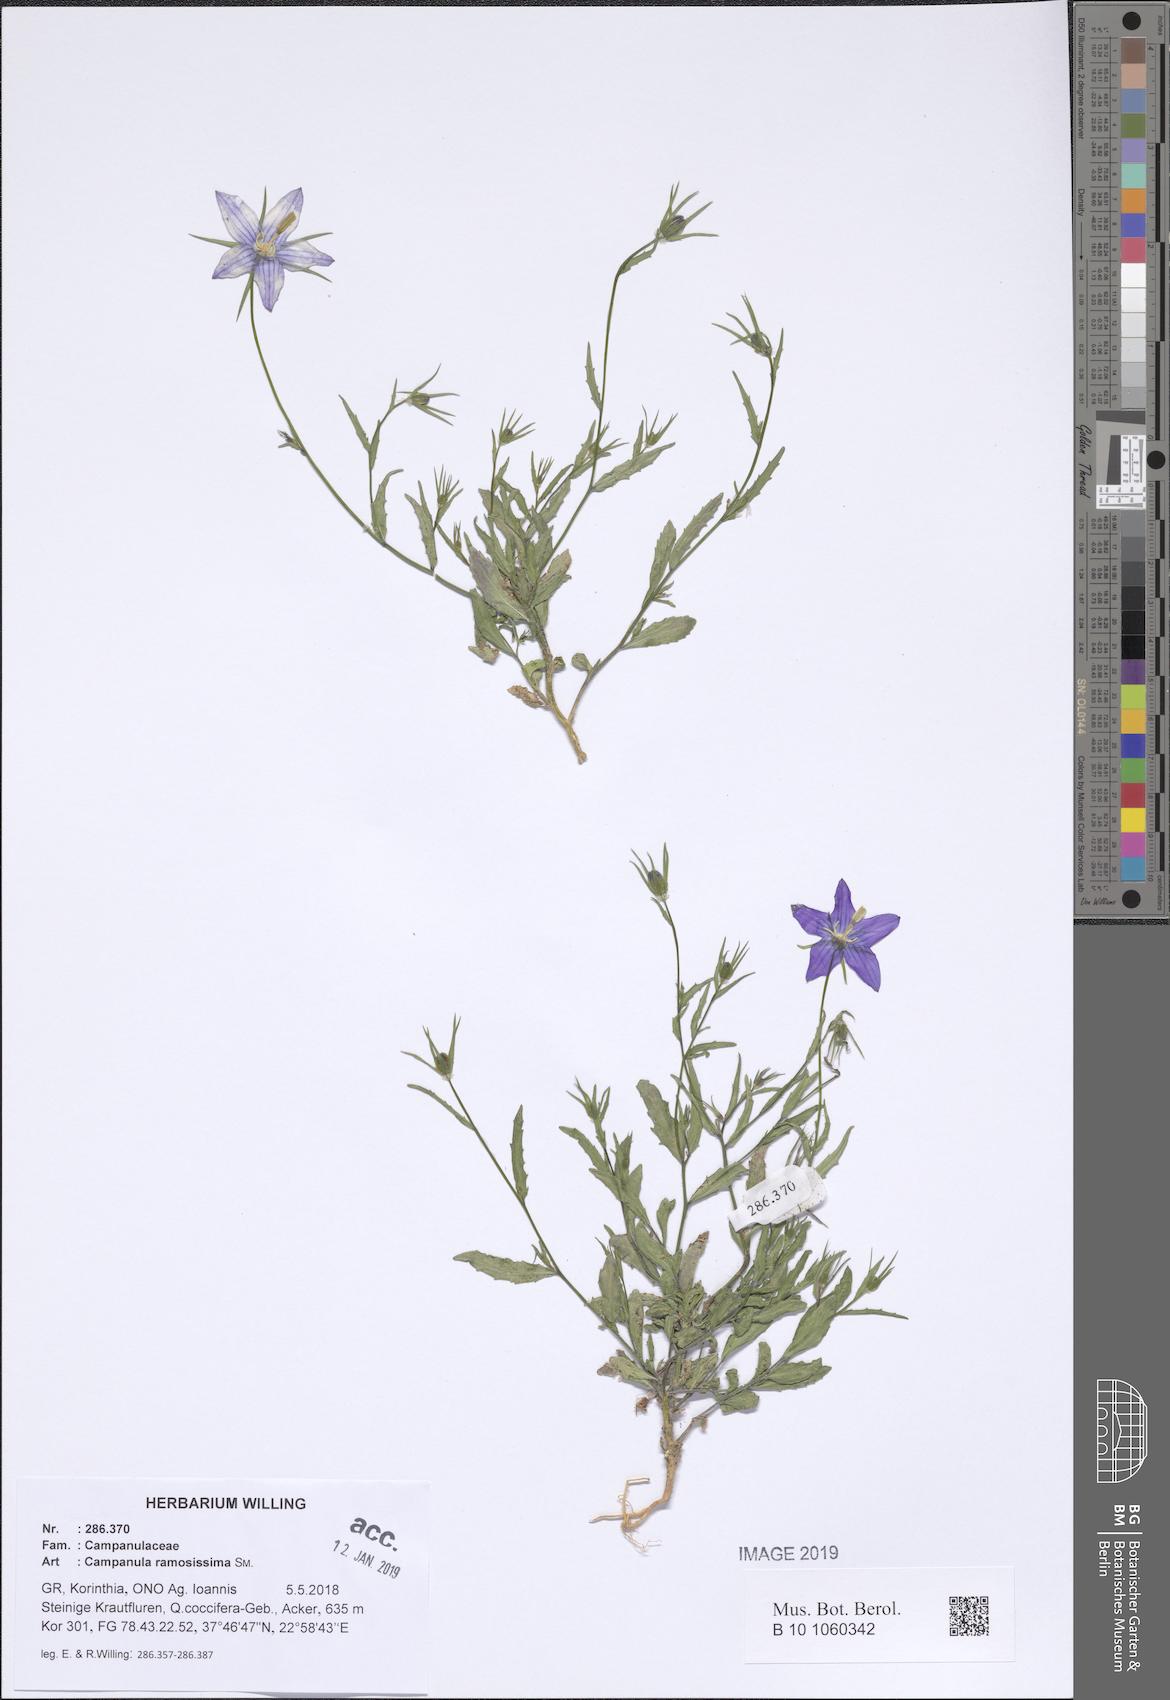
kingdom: Plantae
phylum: Tracheophyta
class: Magnoliopsida
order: Asterales
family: Campanulaceae
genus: Campanula
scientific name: Campanula ramosissima
